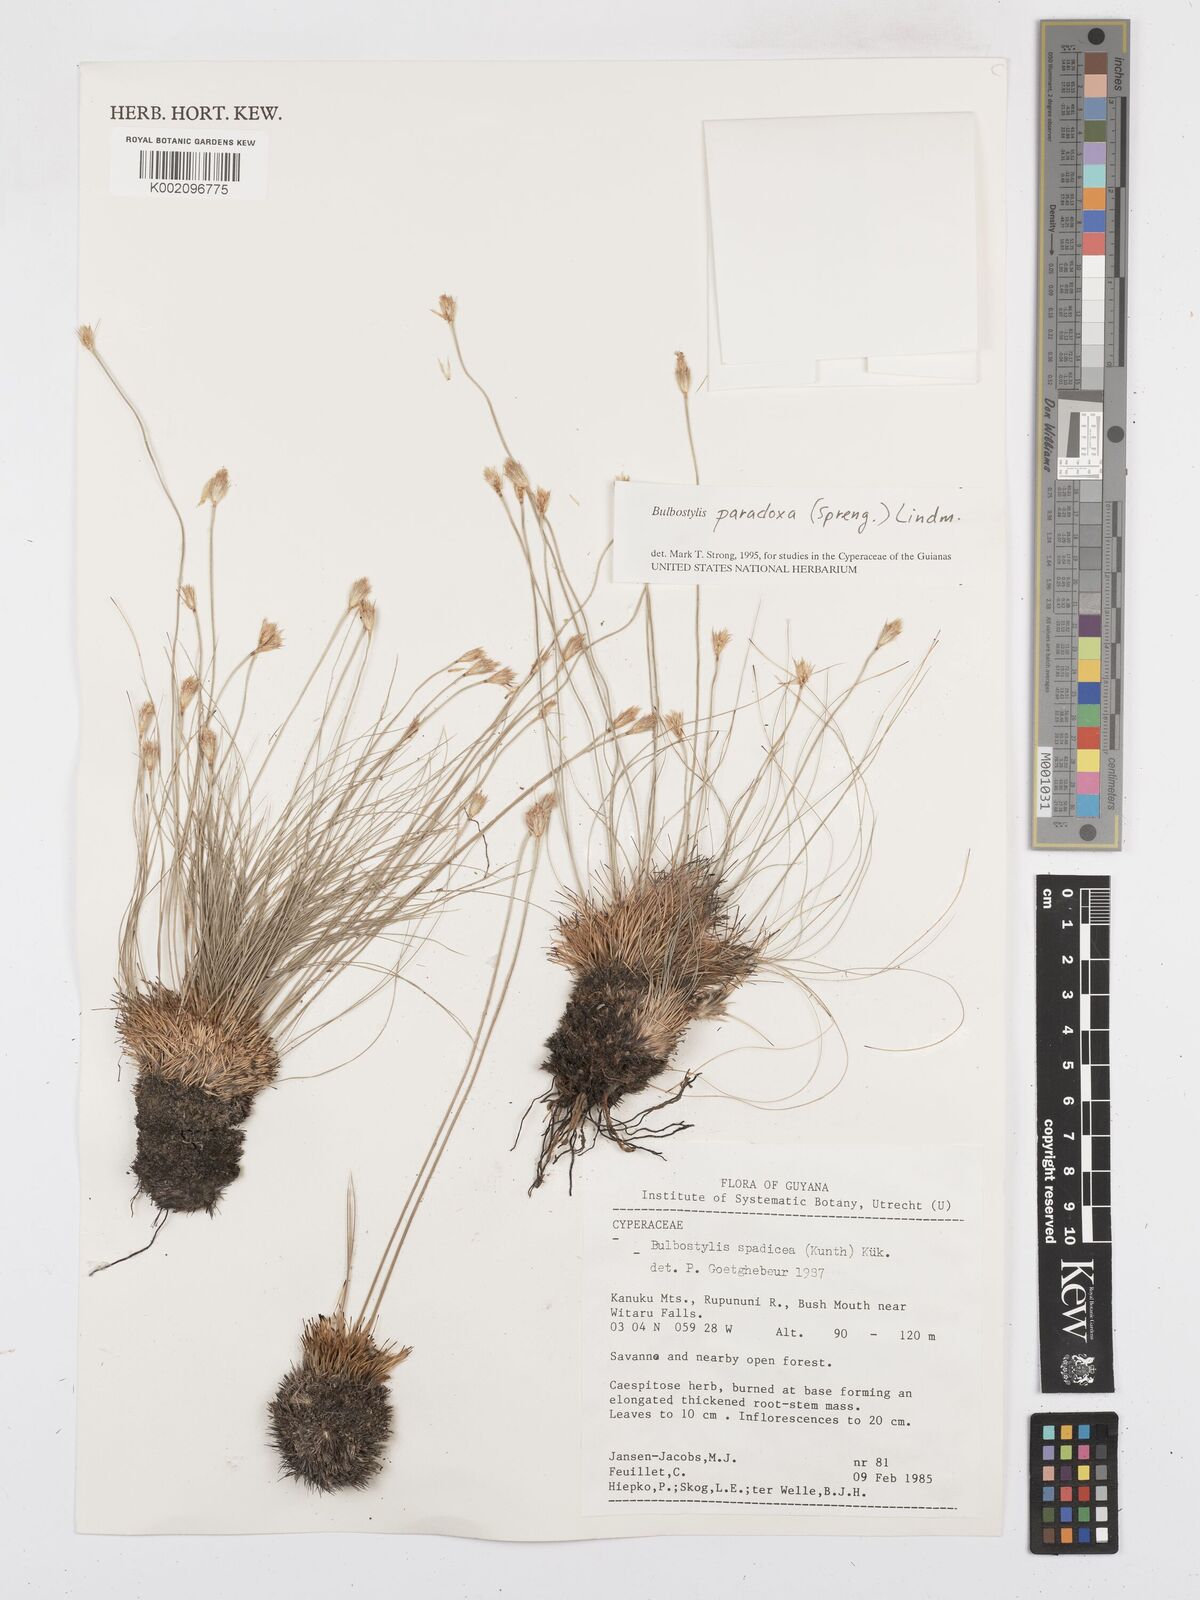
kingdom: Plantae
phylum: Tracheophyta
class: Liliopsida
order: Poales
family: Cyperaceae
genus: Bulbostylis
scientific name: Bulbostylis paradoxa
